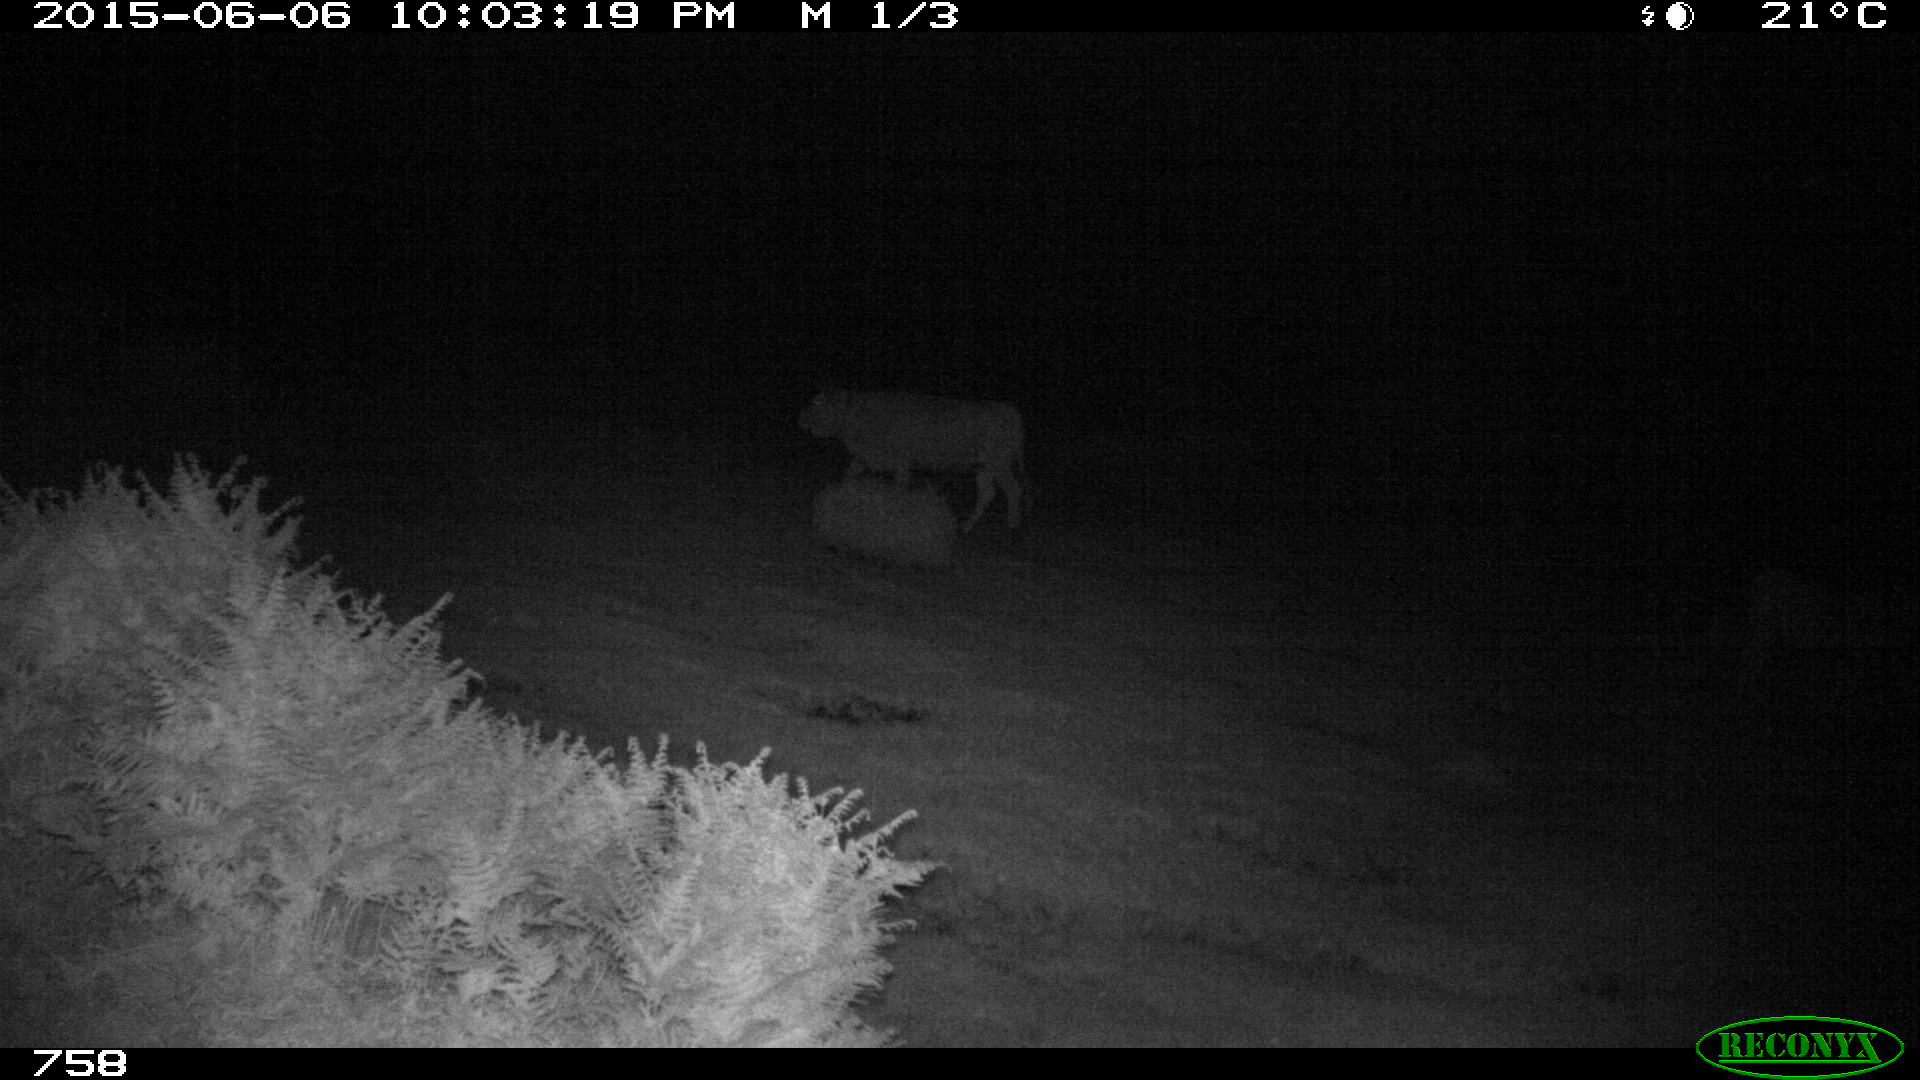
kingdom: Animalia
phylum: Chordata
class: Mammalia
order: Artiodactyla
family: Bovidae
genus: Bos
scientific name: Bos taurus
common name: Domesticated cattle
